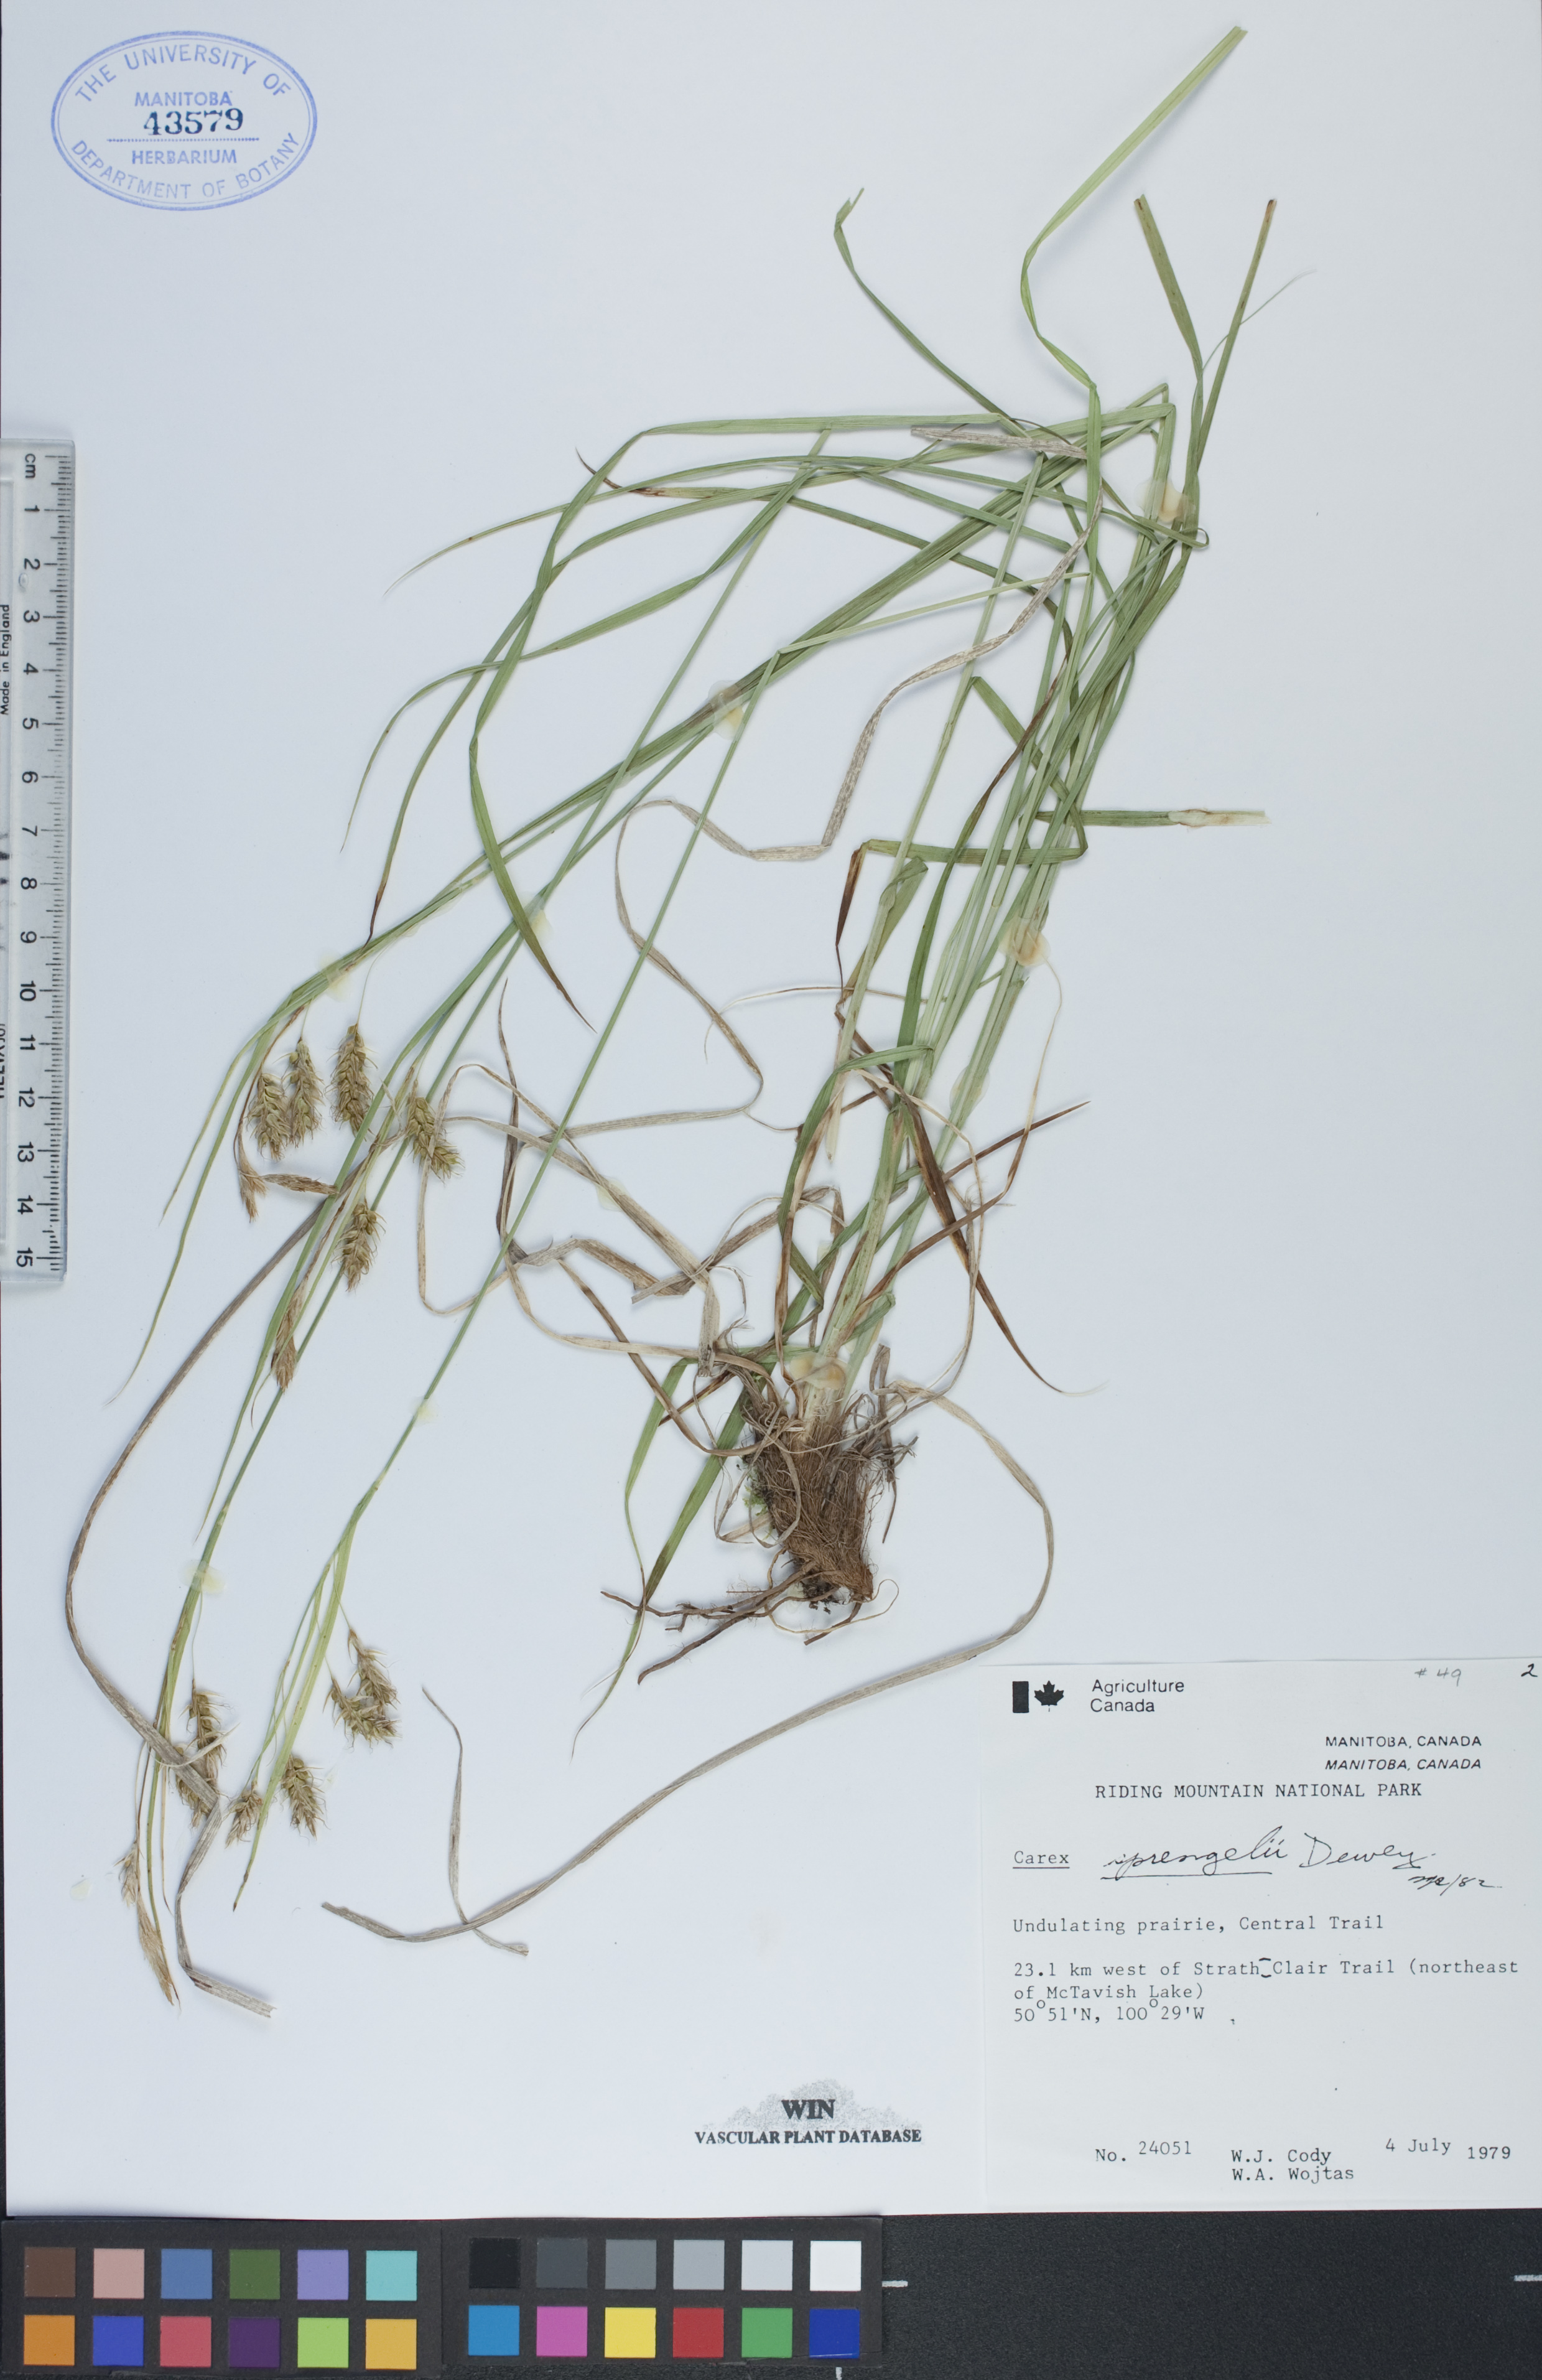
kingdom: Plantae
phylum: Tracheophyta
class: Liliopsida
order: Poales
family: Cyperaceae
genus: Carex
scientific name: Carex sprengelii
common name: Long-beaked sedge
